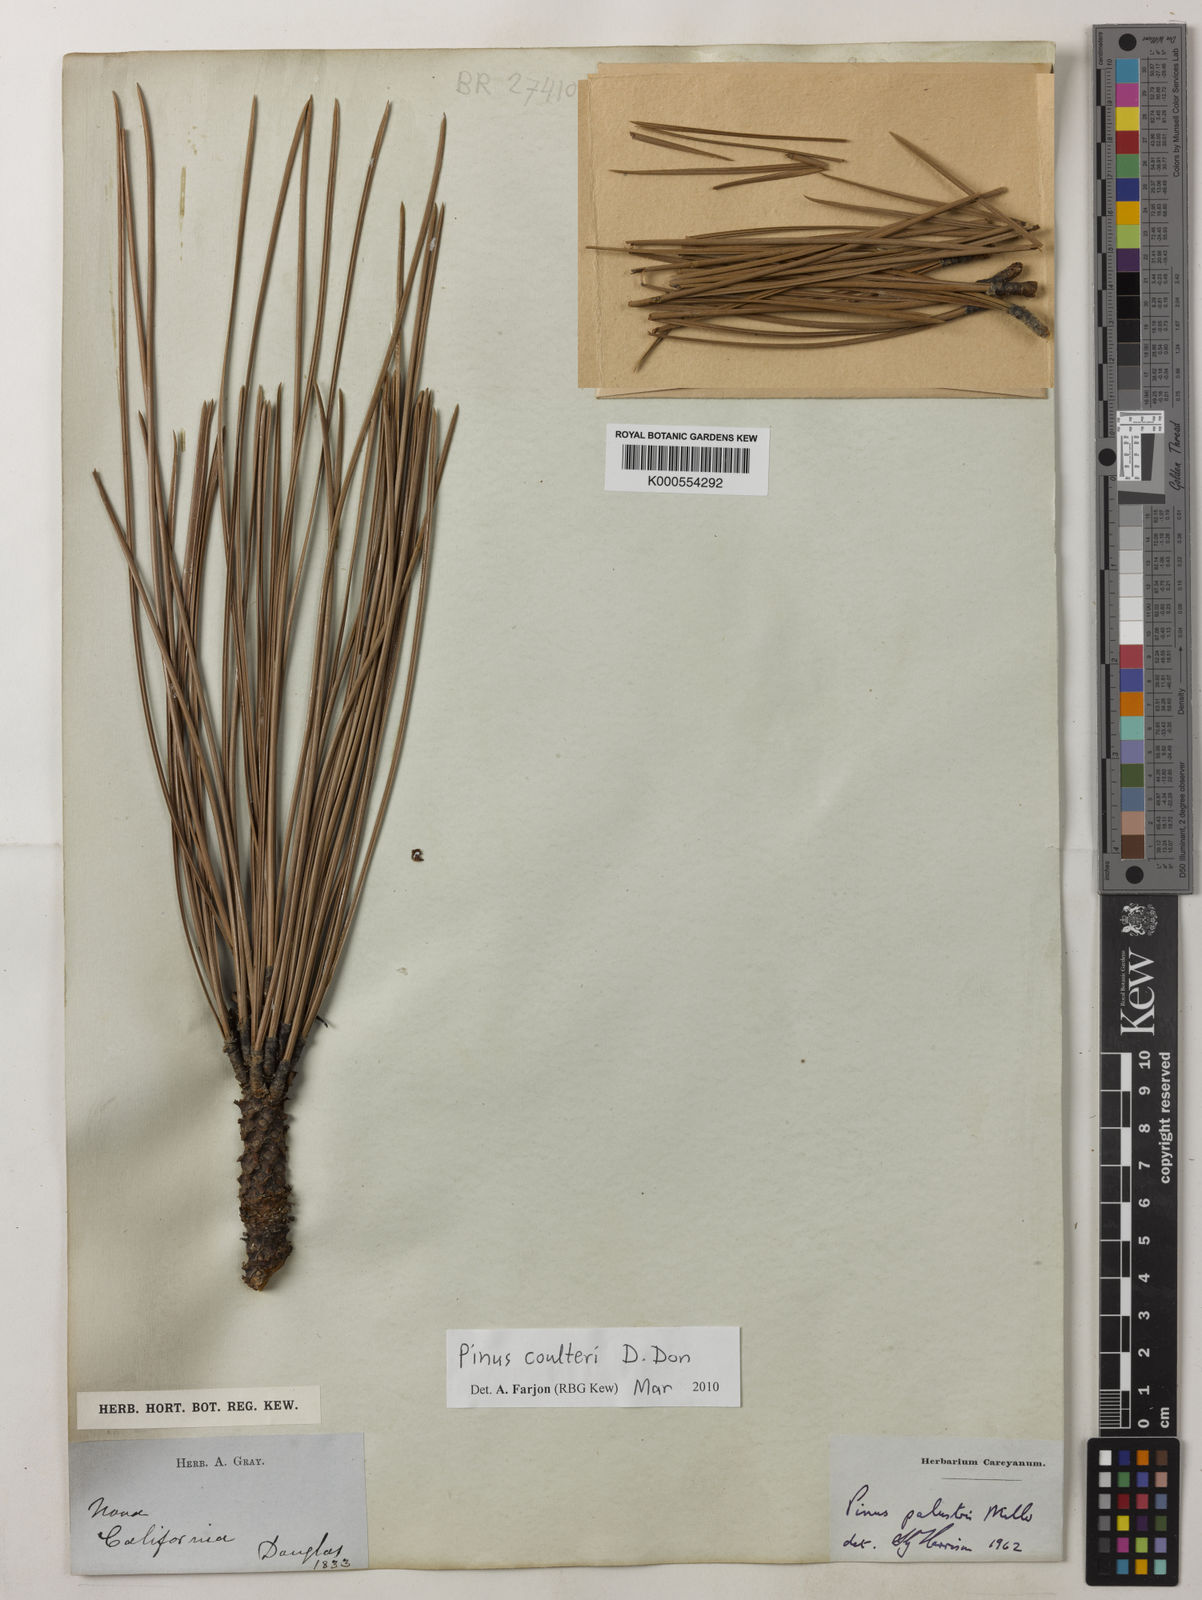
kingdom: Plantae
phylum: Tracheophyta
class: Pinopsida
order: Pinales
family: Pinaceae
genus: Pinus
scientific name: Pinus coulteri
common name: Coulter pine
